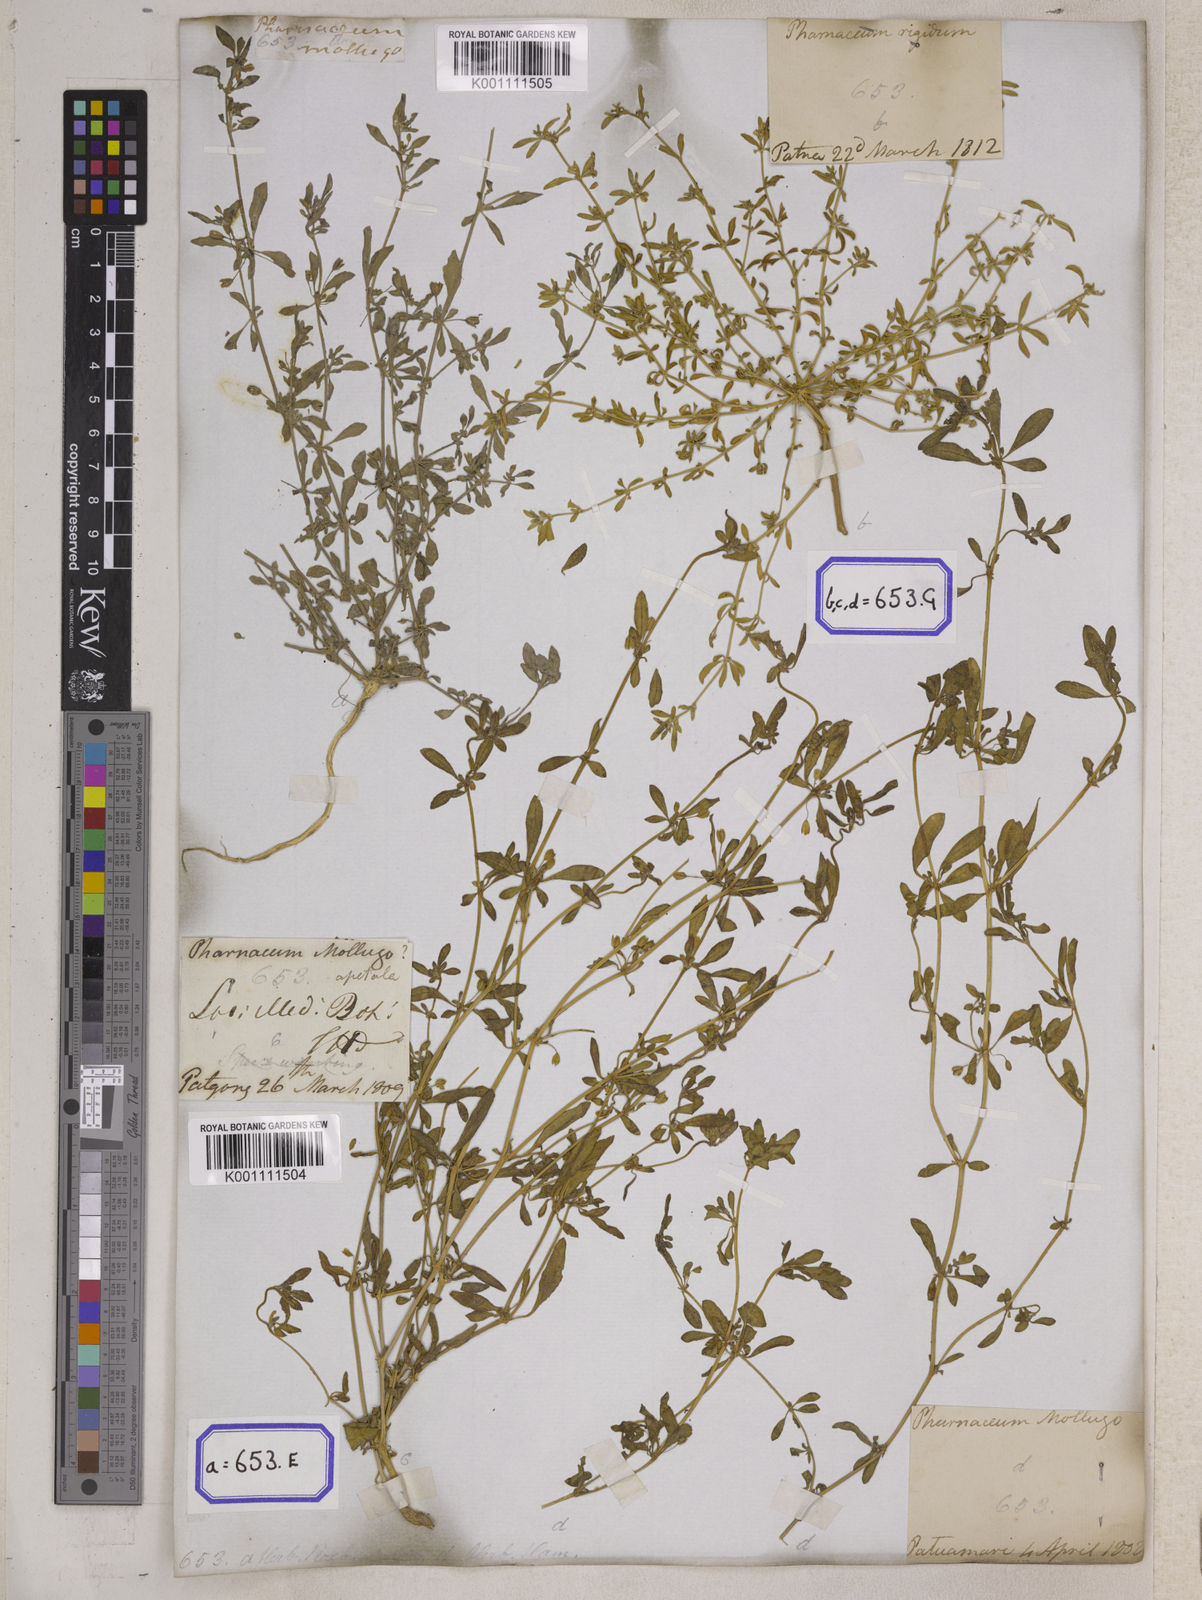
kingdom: Plantae
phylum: Tracheophyta
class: Magnoliopsida
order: Caryophyllales
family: Molluginaceae
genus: Glinus
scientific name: Glinus oppositifolius
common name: Slender carpetweed
